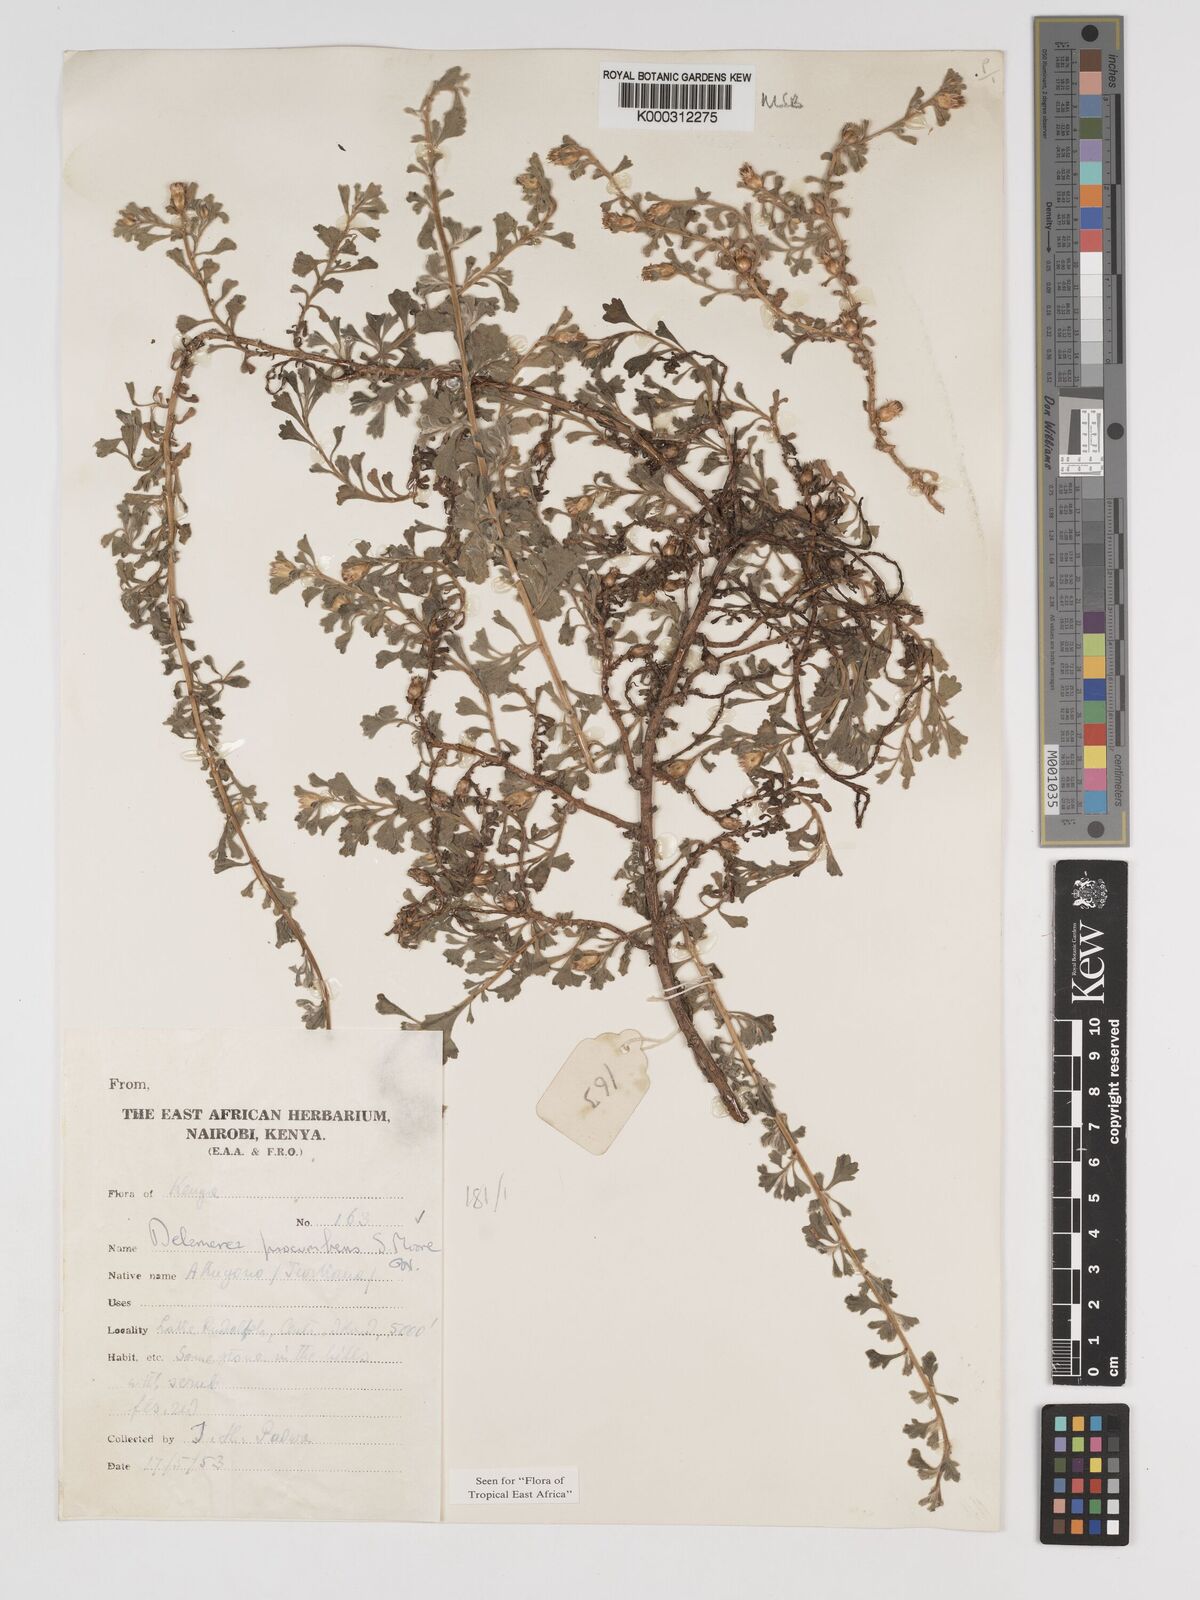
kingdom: Plantae
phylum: Tracheophyta
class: Magnoliopsida
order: Asterales
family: Asteraceae
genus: Delamerea
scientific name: Delamerea procumbens
